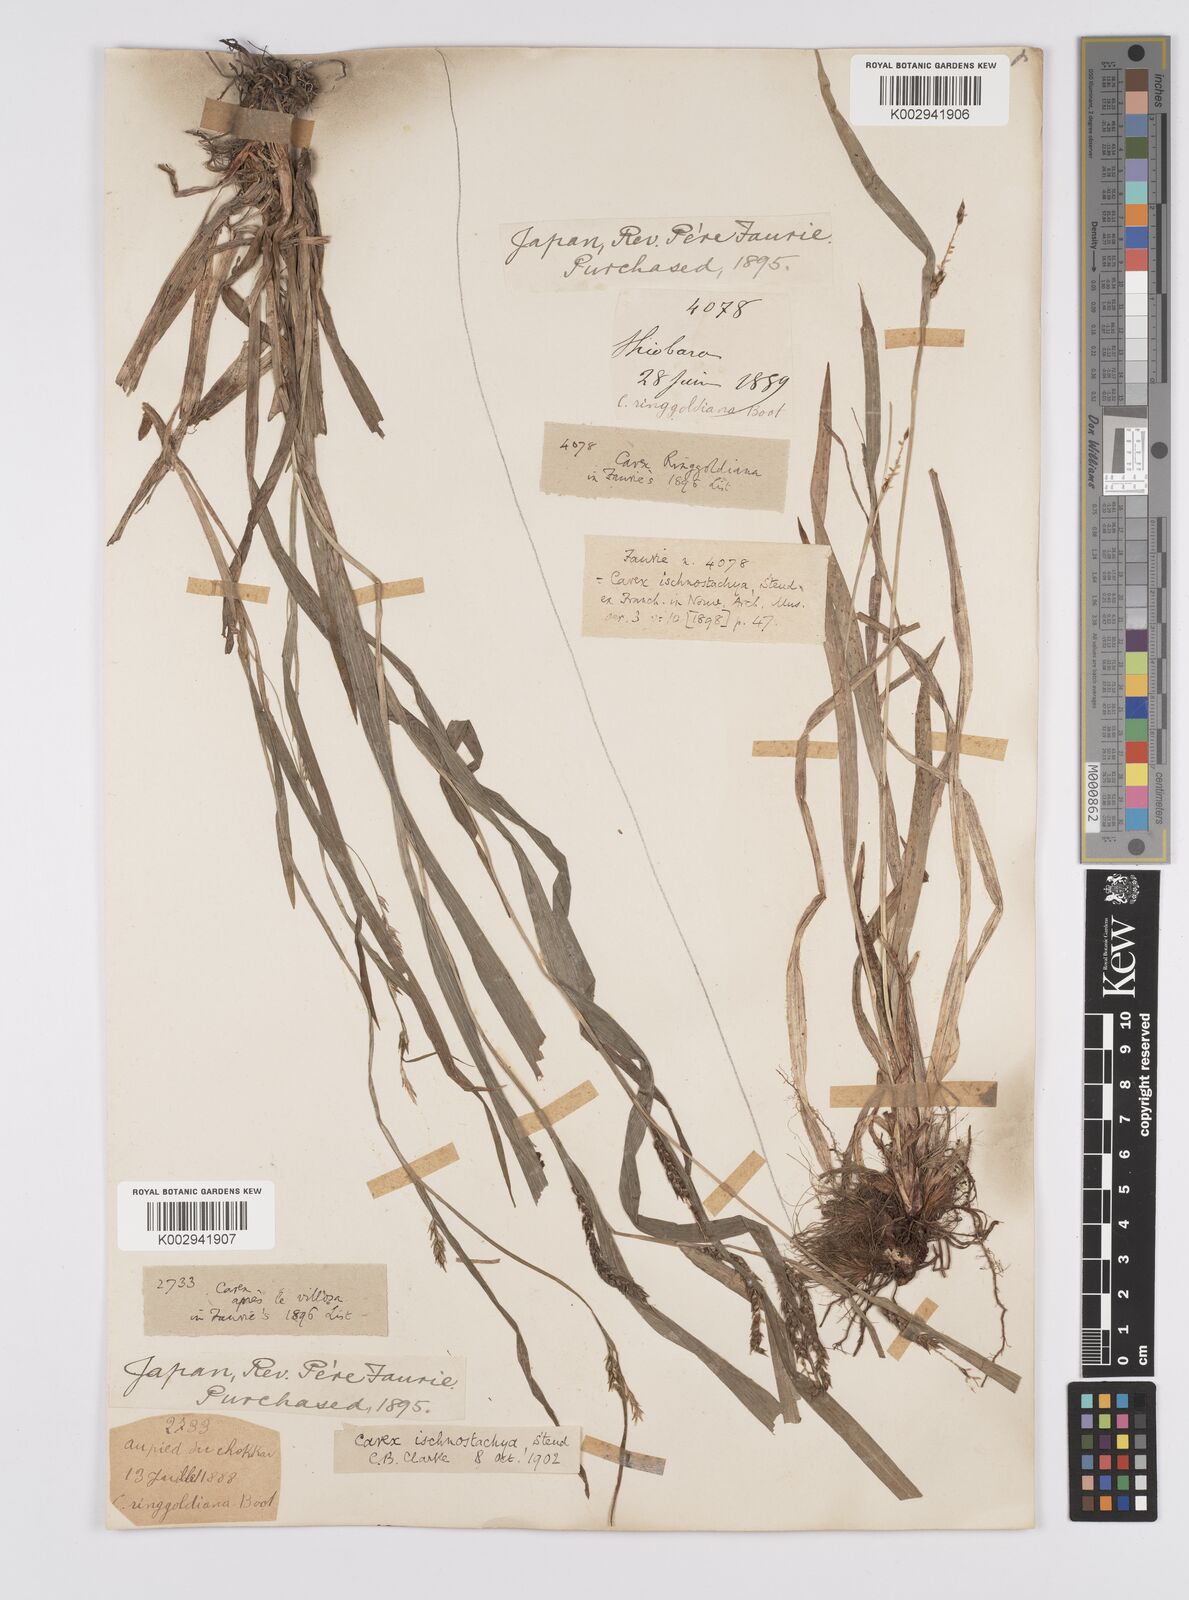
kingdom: Plantae
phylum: Tracheophyta
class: Liliopsida
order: Poales
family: Cyperaceae
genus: Carex
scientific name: Carex ischnostachya
